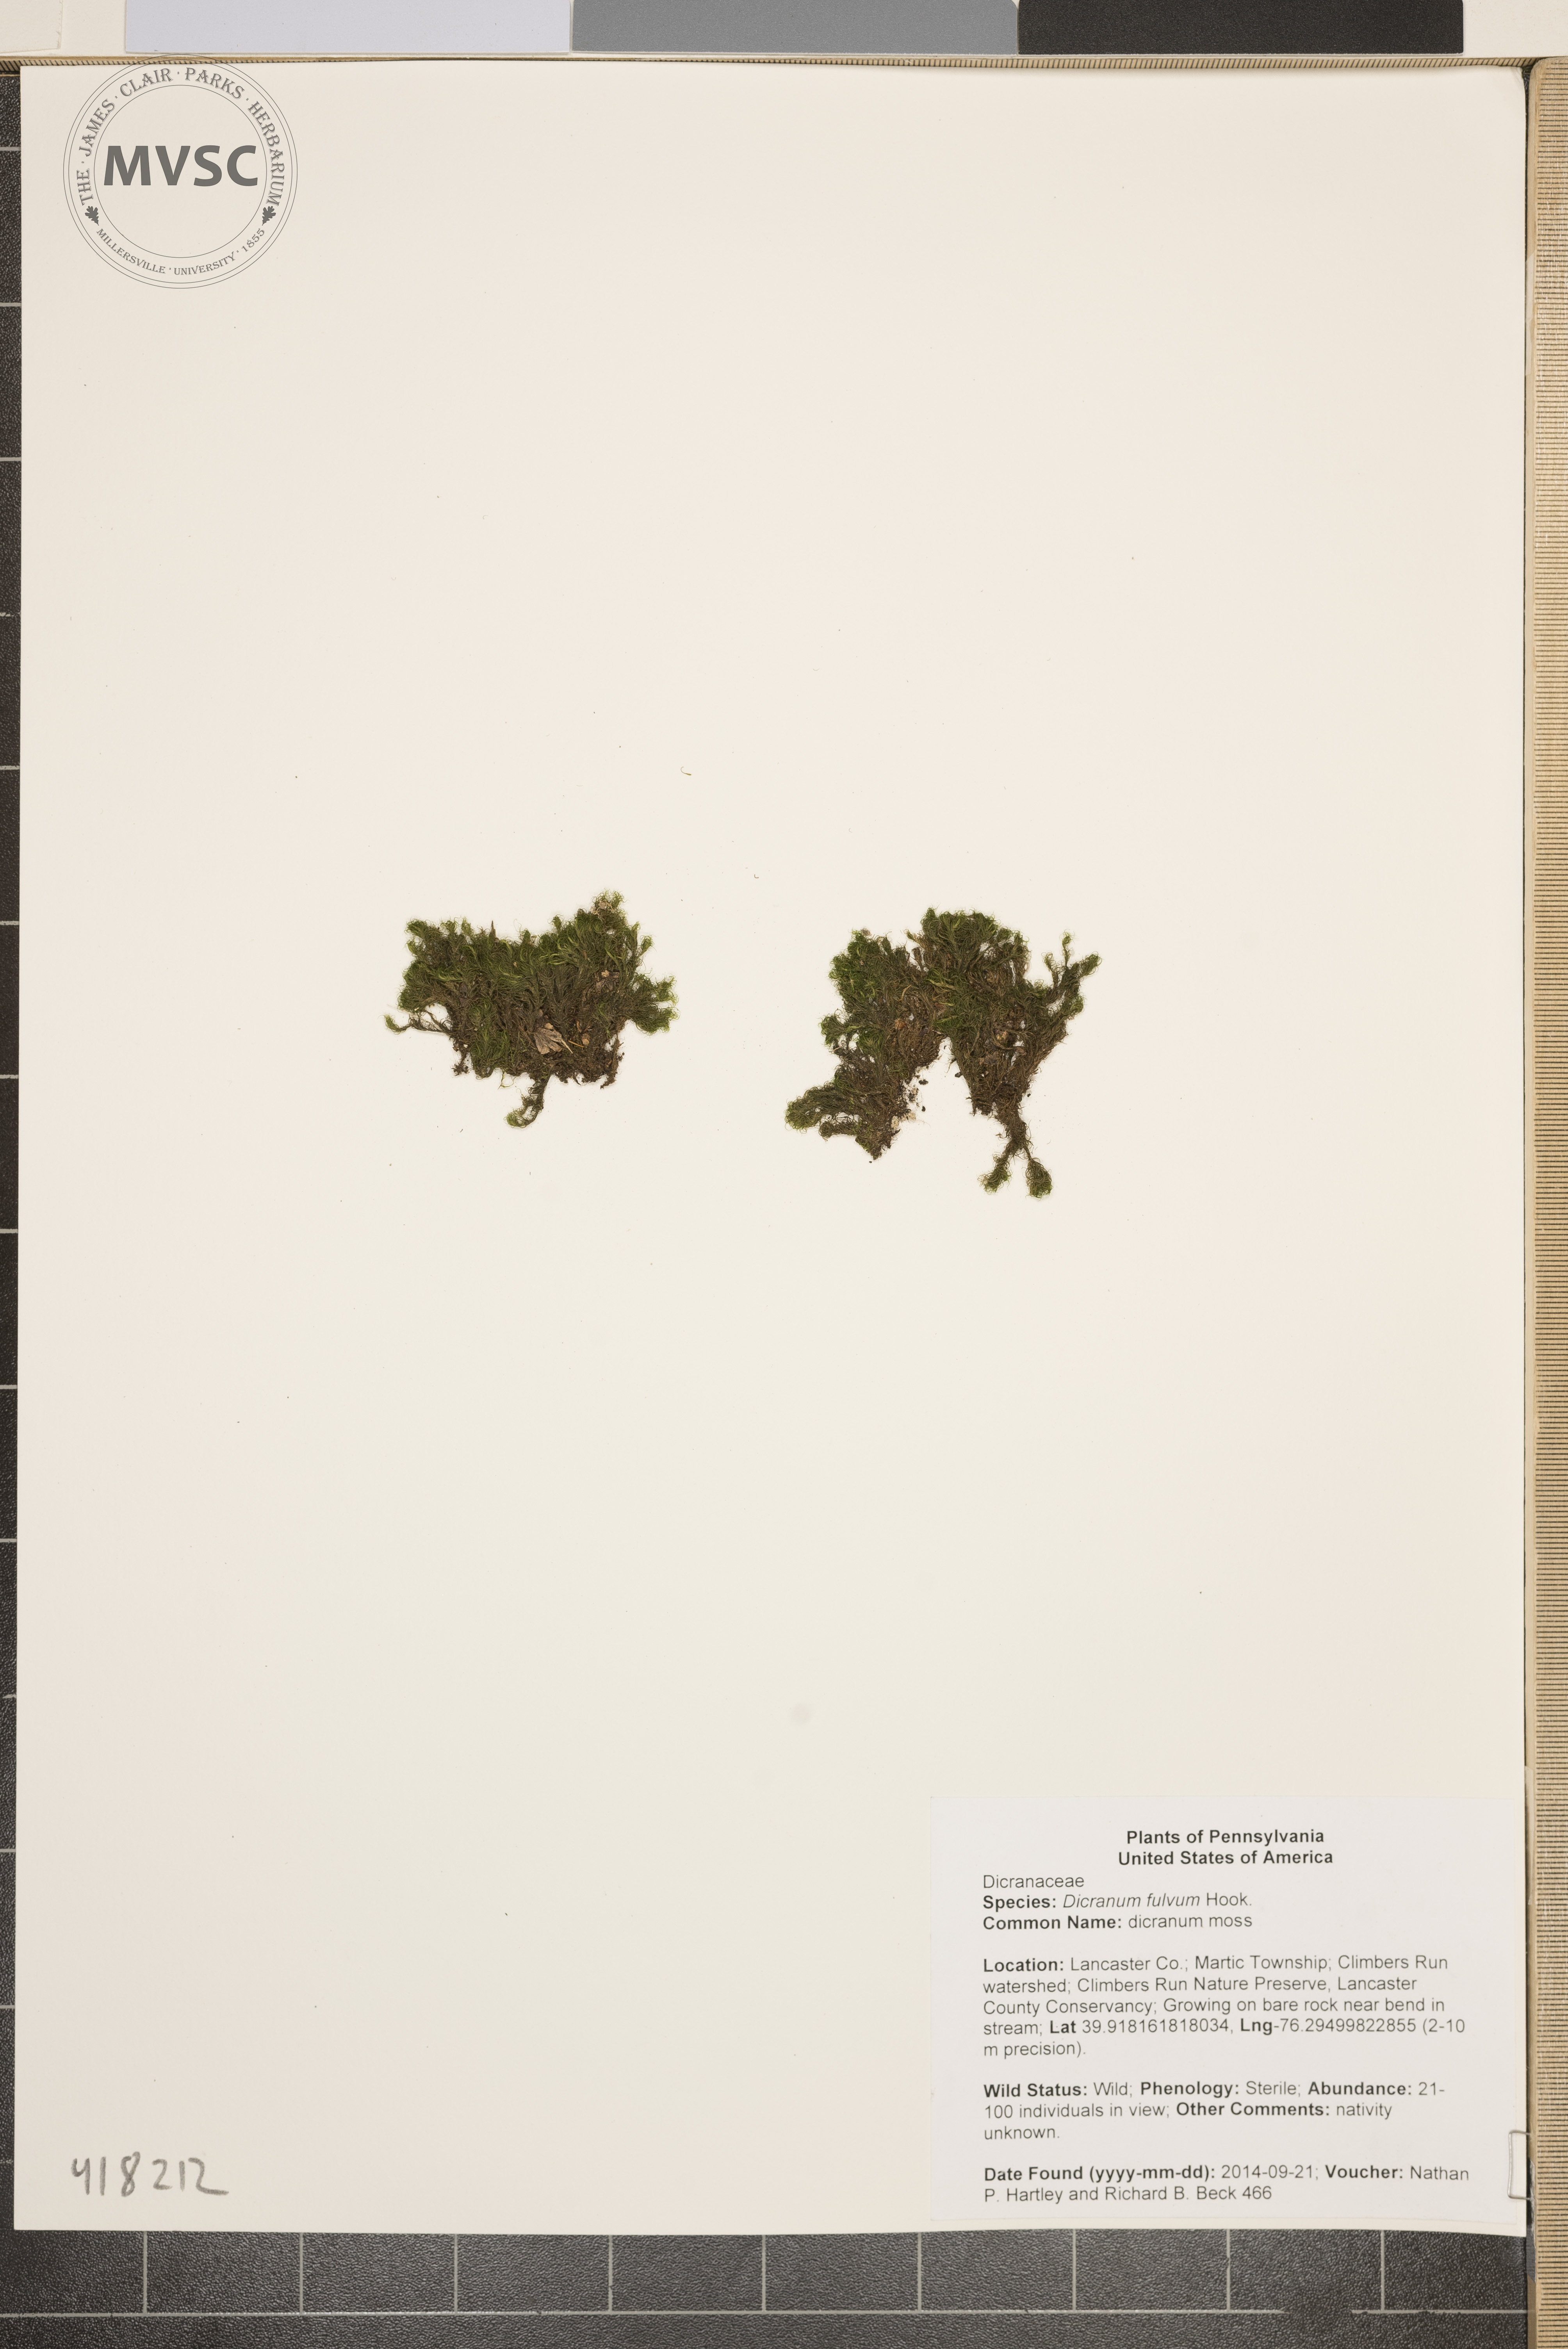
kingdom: Plantae
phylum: Bryophyta
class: Bryopsida
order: Dicranales
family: Dicranellaceae
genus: Dicranella
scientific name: Dicranella heteromalla
